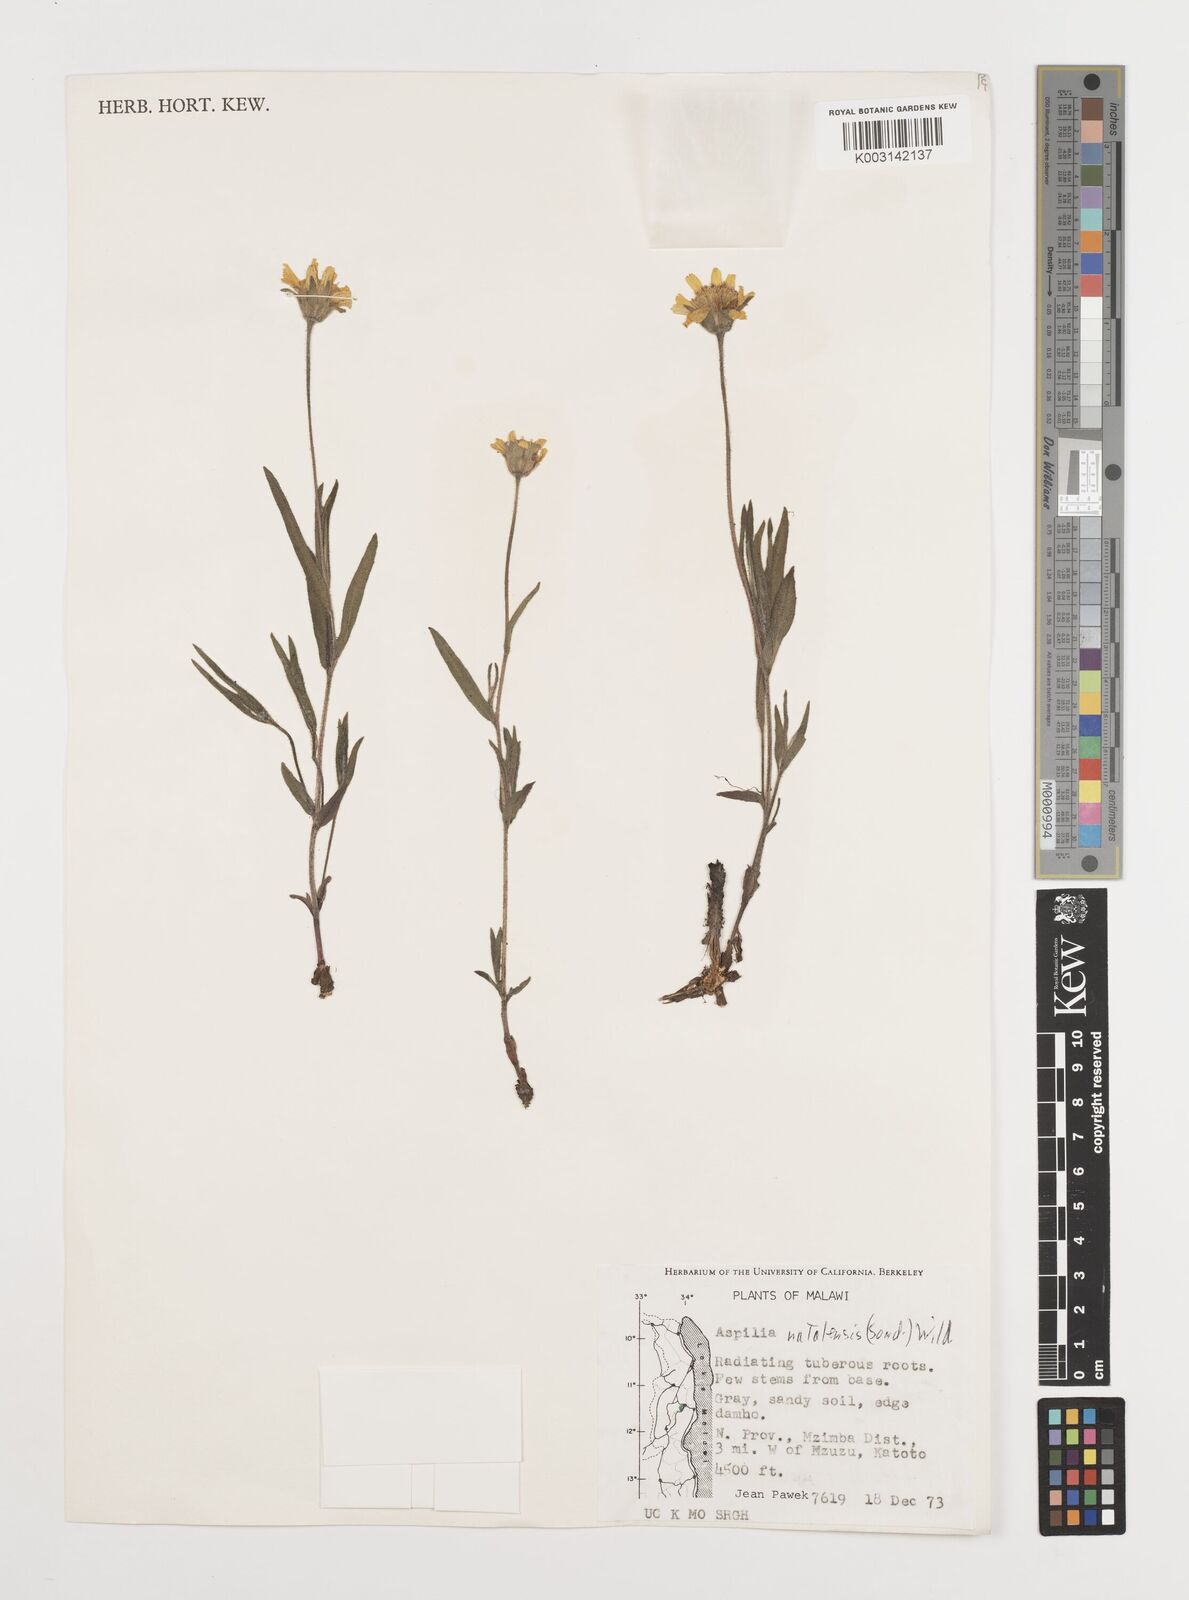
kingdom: Plantae
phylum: Tracheophyta
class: Magnoliopsida
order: Asterales
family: Asteraceae
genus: Aspilia
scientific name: Aspilia natalensis
